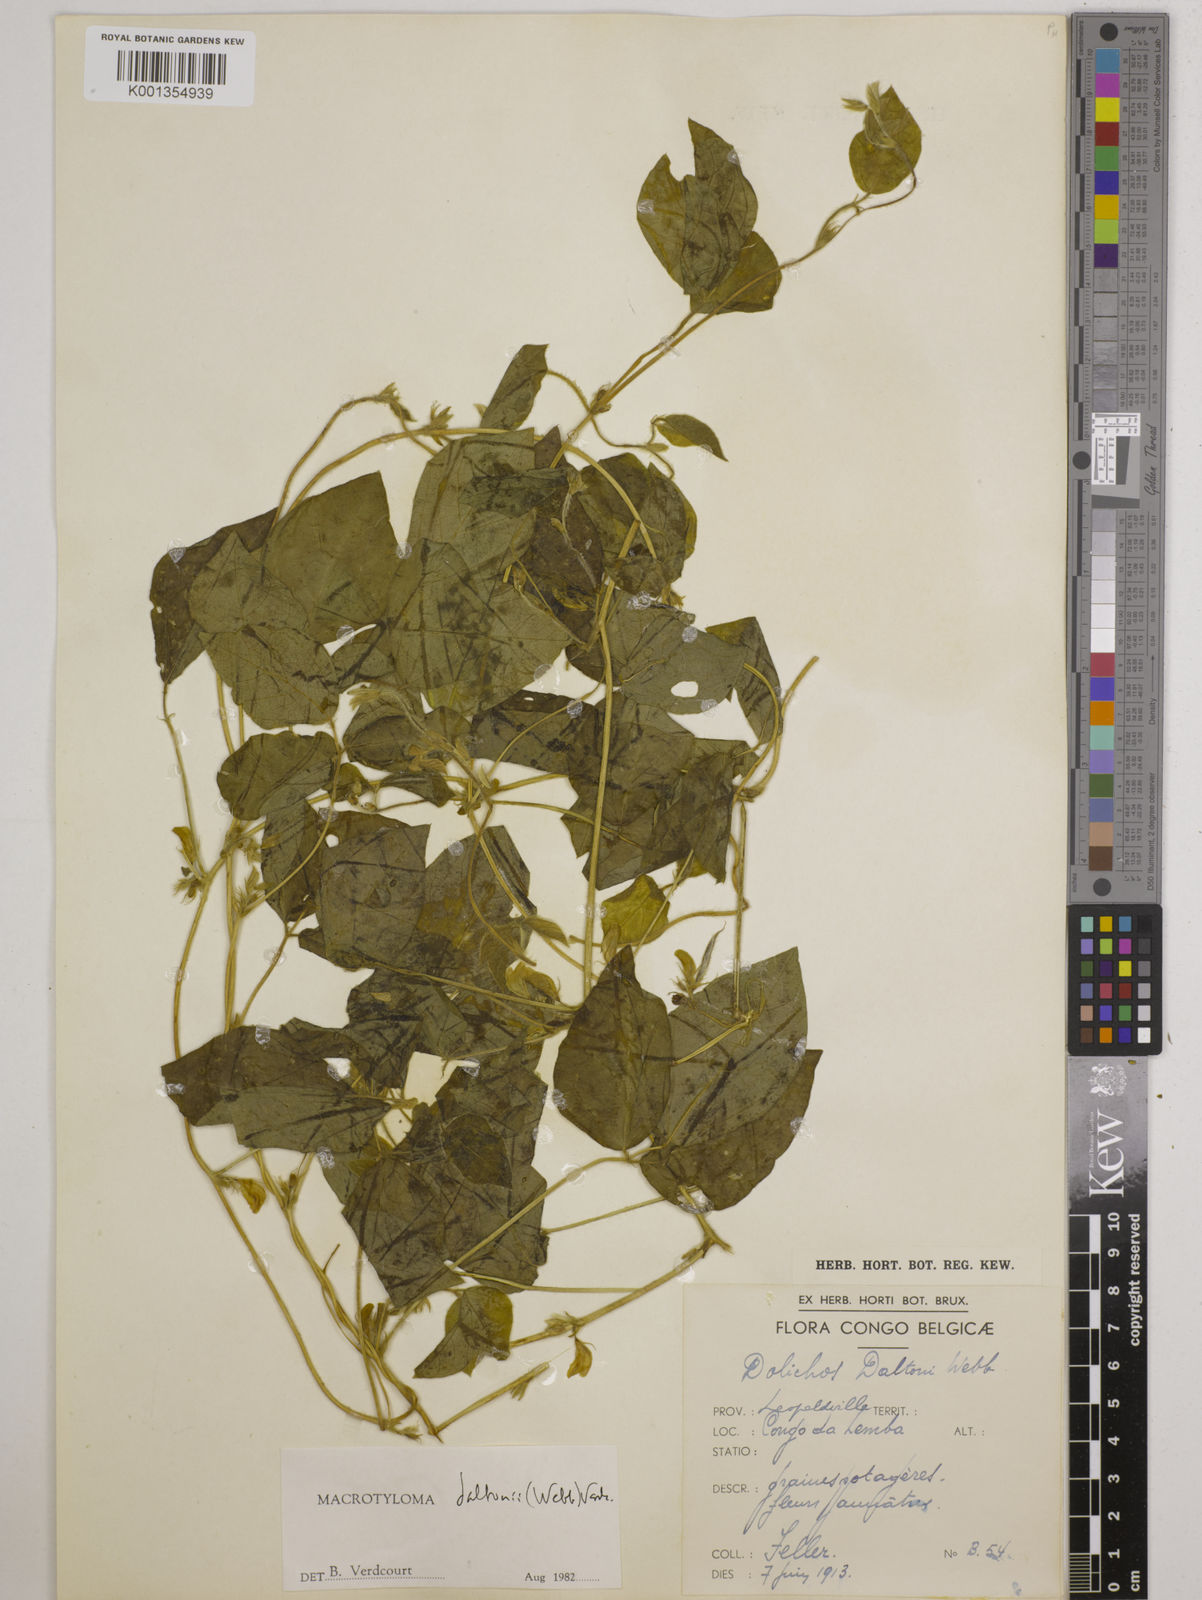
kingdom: Plantae
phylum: Tracheophyta
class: Magnoliopsida
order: Fabales
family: Fabaceae
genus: Macrotyloma
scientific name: Macrotyloma daltonii
